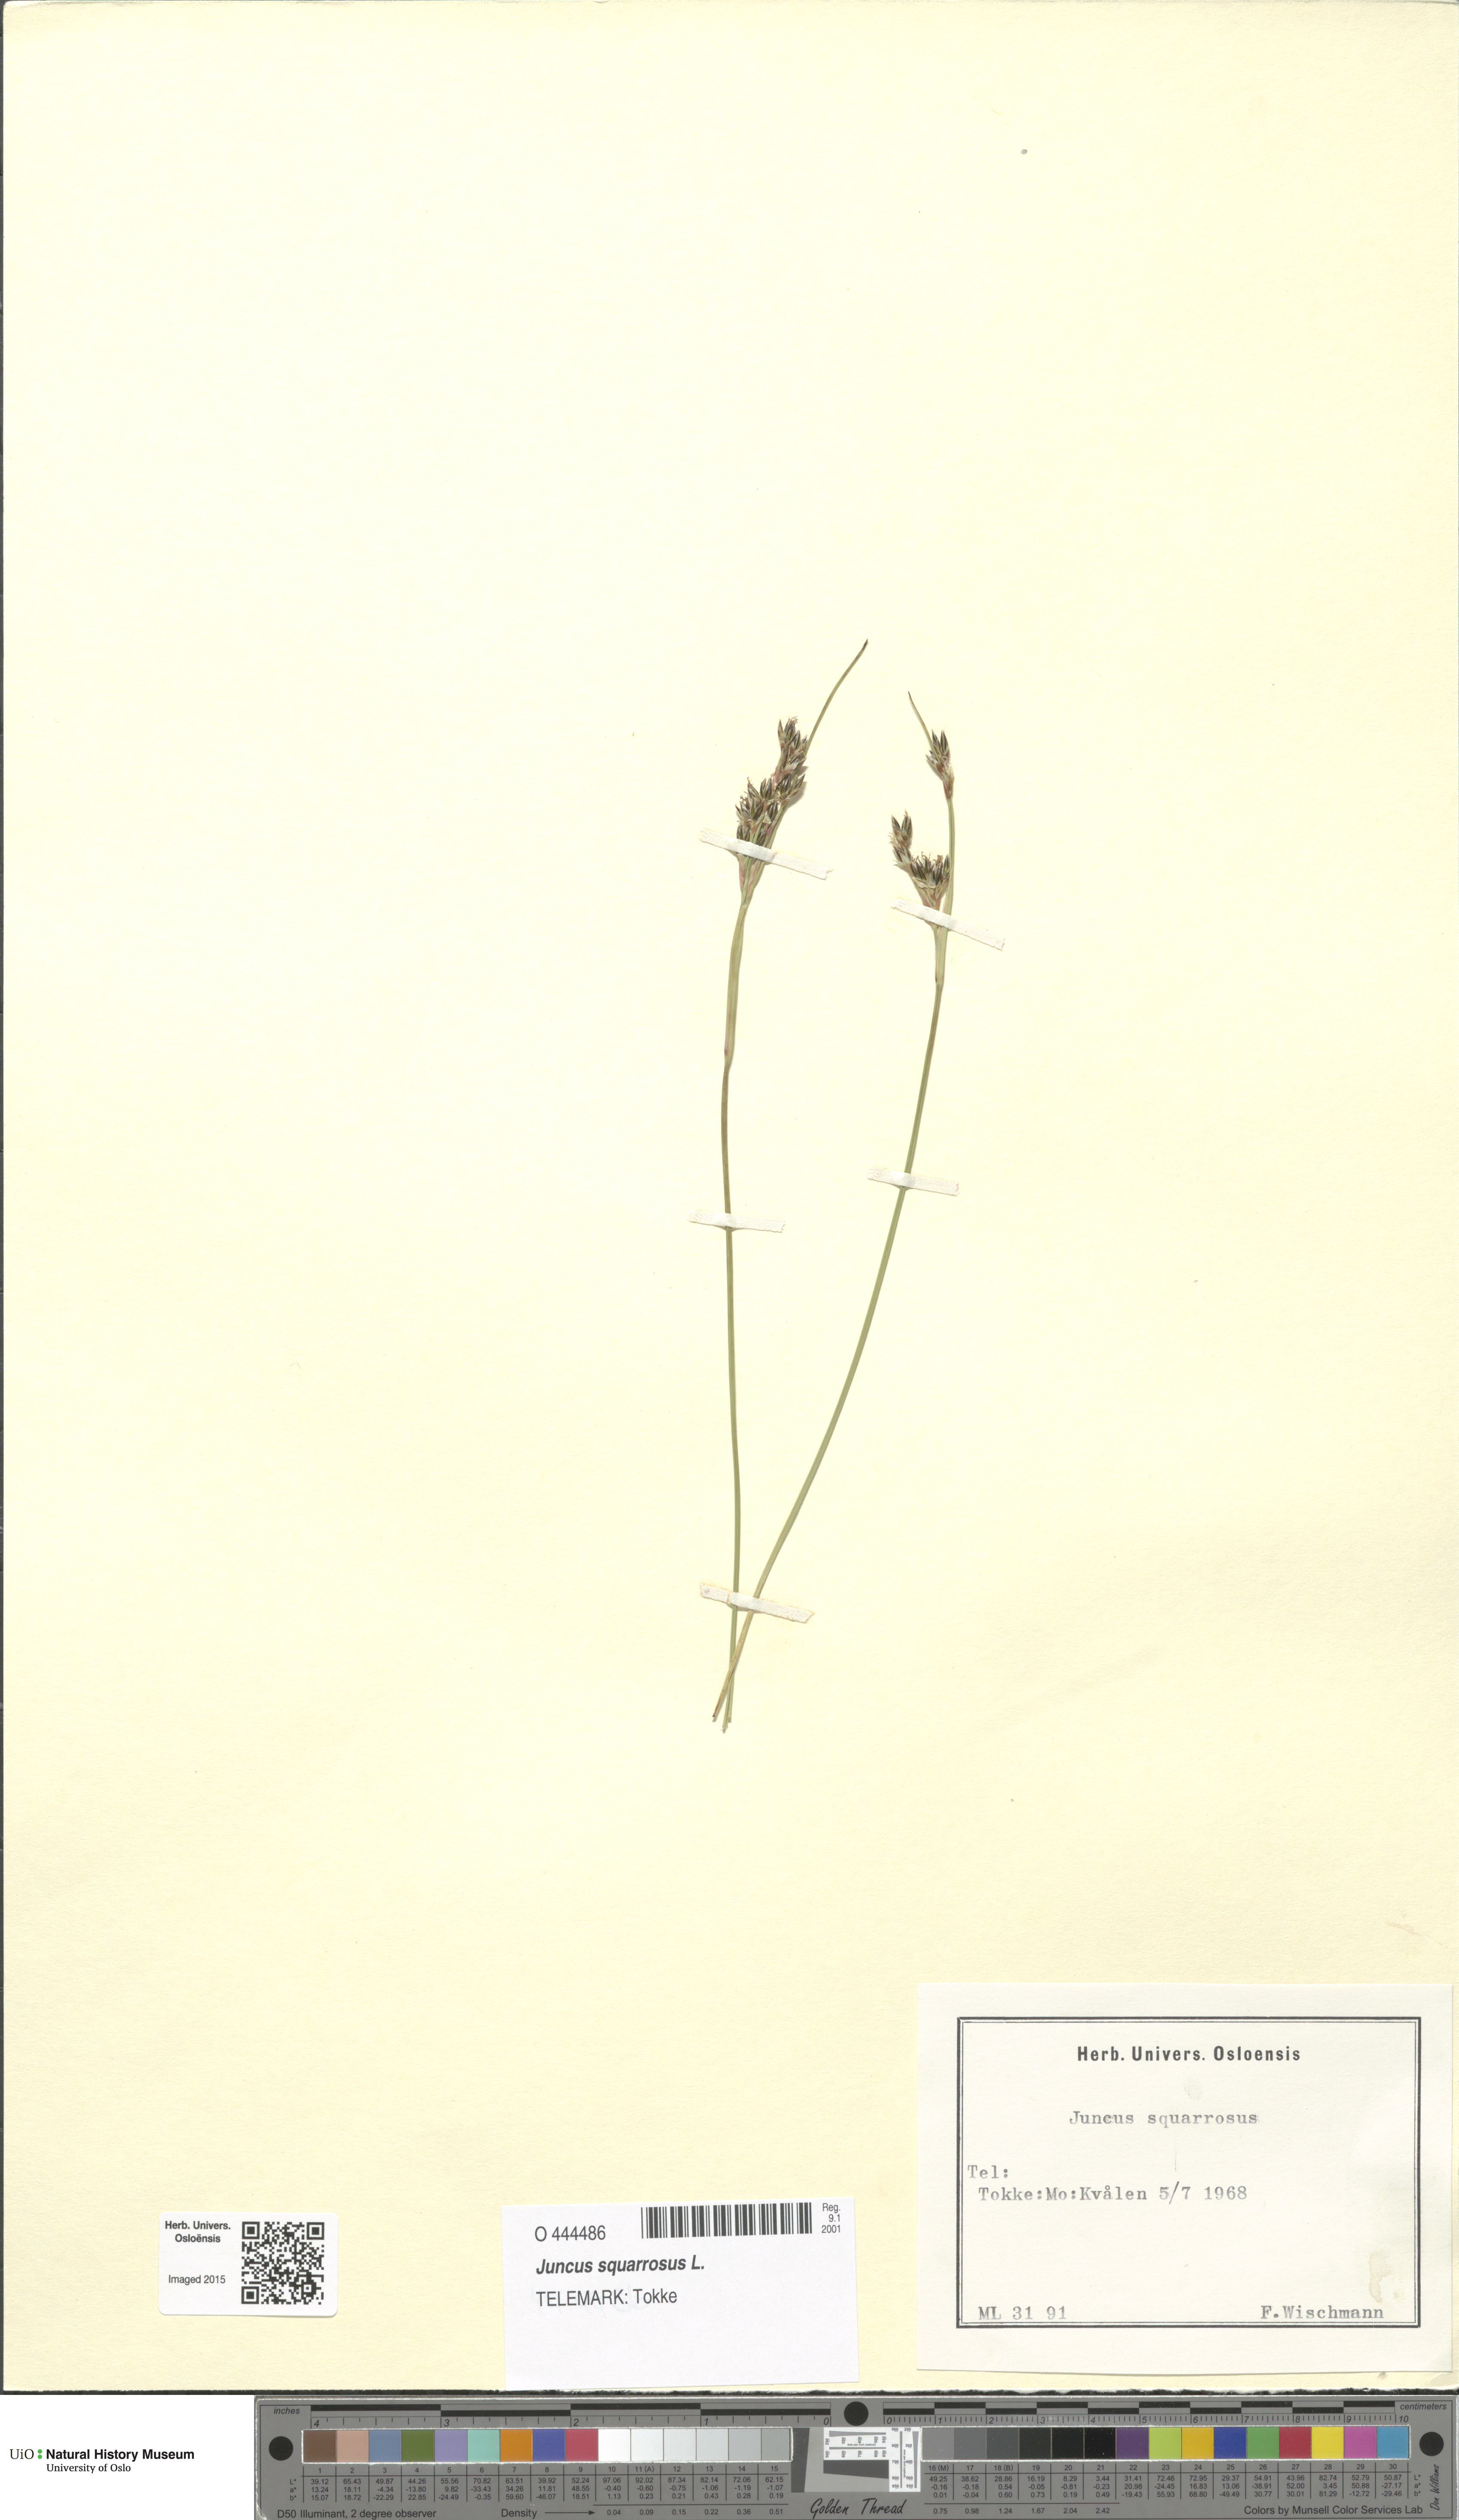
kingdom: Plantae
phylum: Tracheophyta
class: Liliopsida
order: Poales
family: Juncaceae
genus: Juncus
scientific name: Juncus squarrosus
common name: Heath rush
